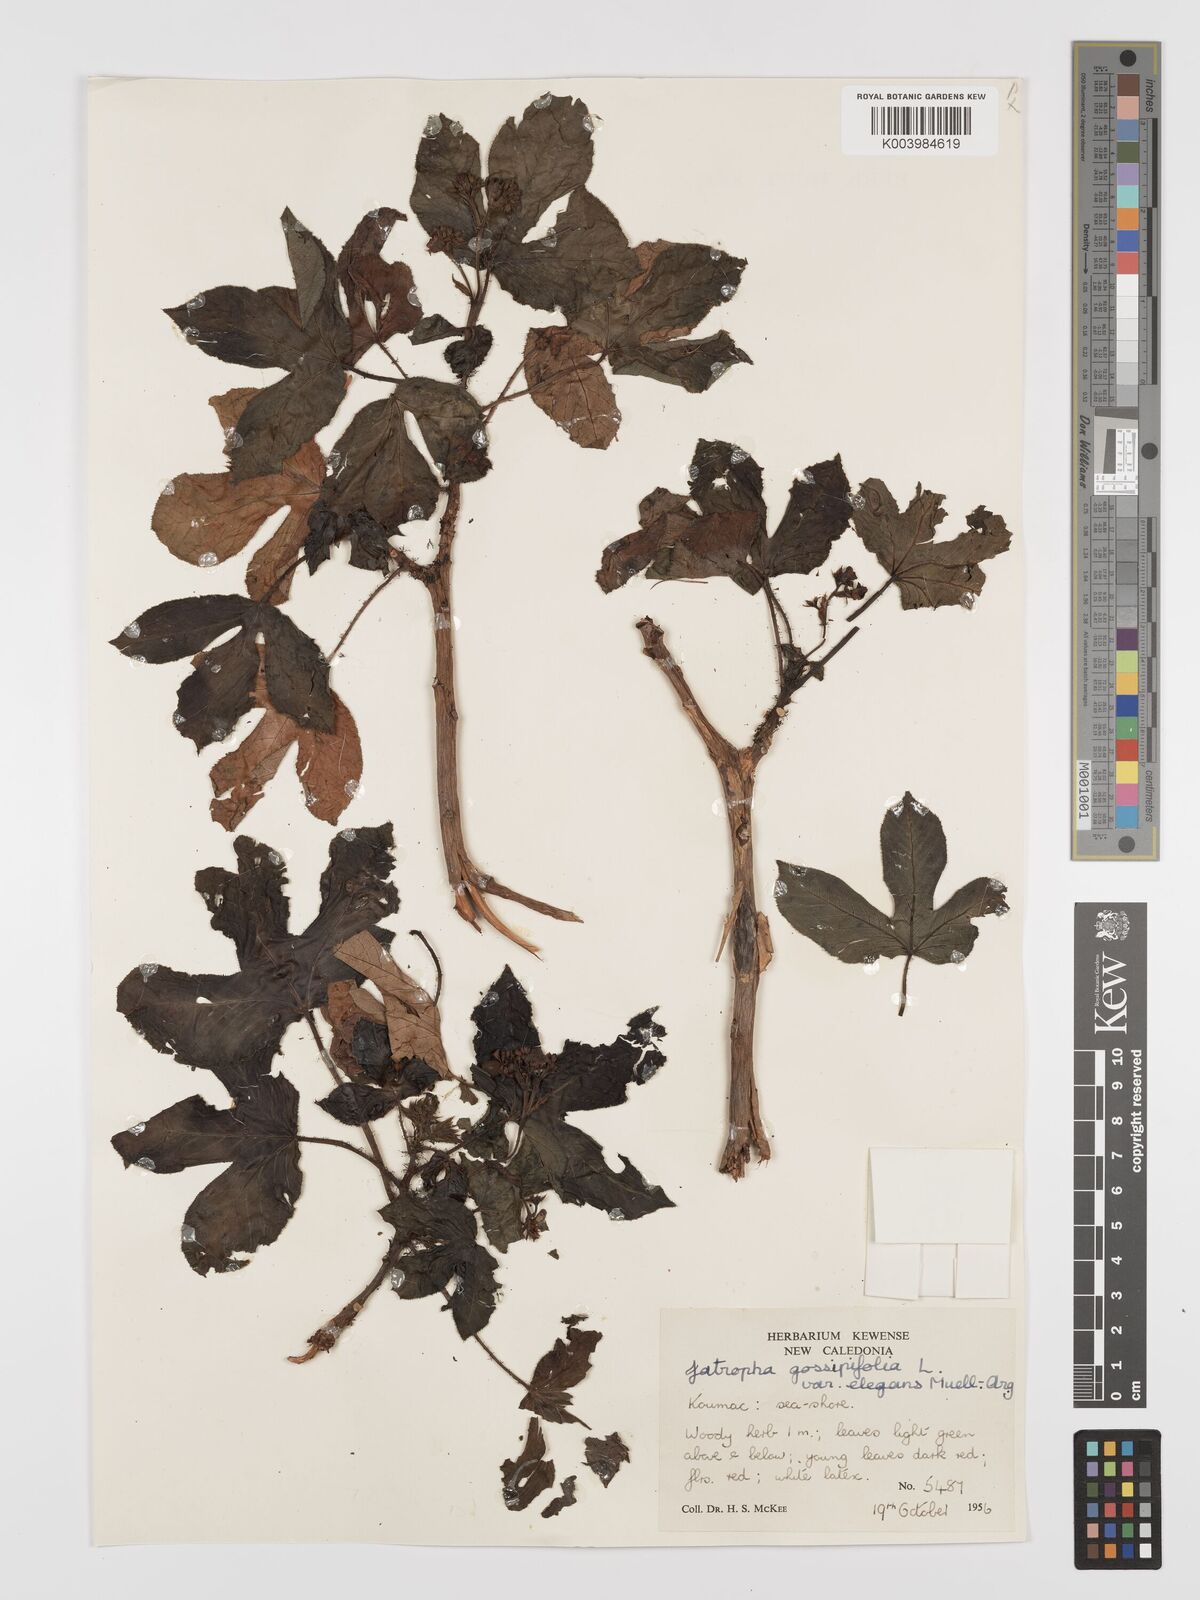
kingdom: Plantae
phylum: Tracheophyta
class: Magnoliopsida
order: Malpighiales
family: Euphorbiaceae
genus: Jatropha
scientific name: Jatropha gossypiifolia
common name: Bellyache bush
